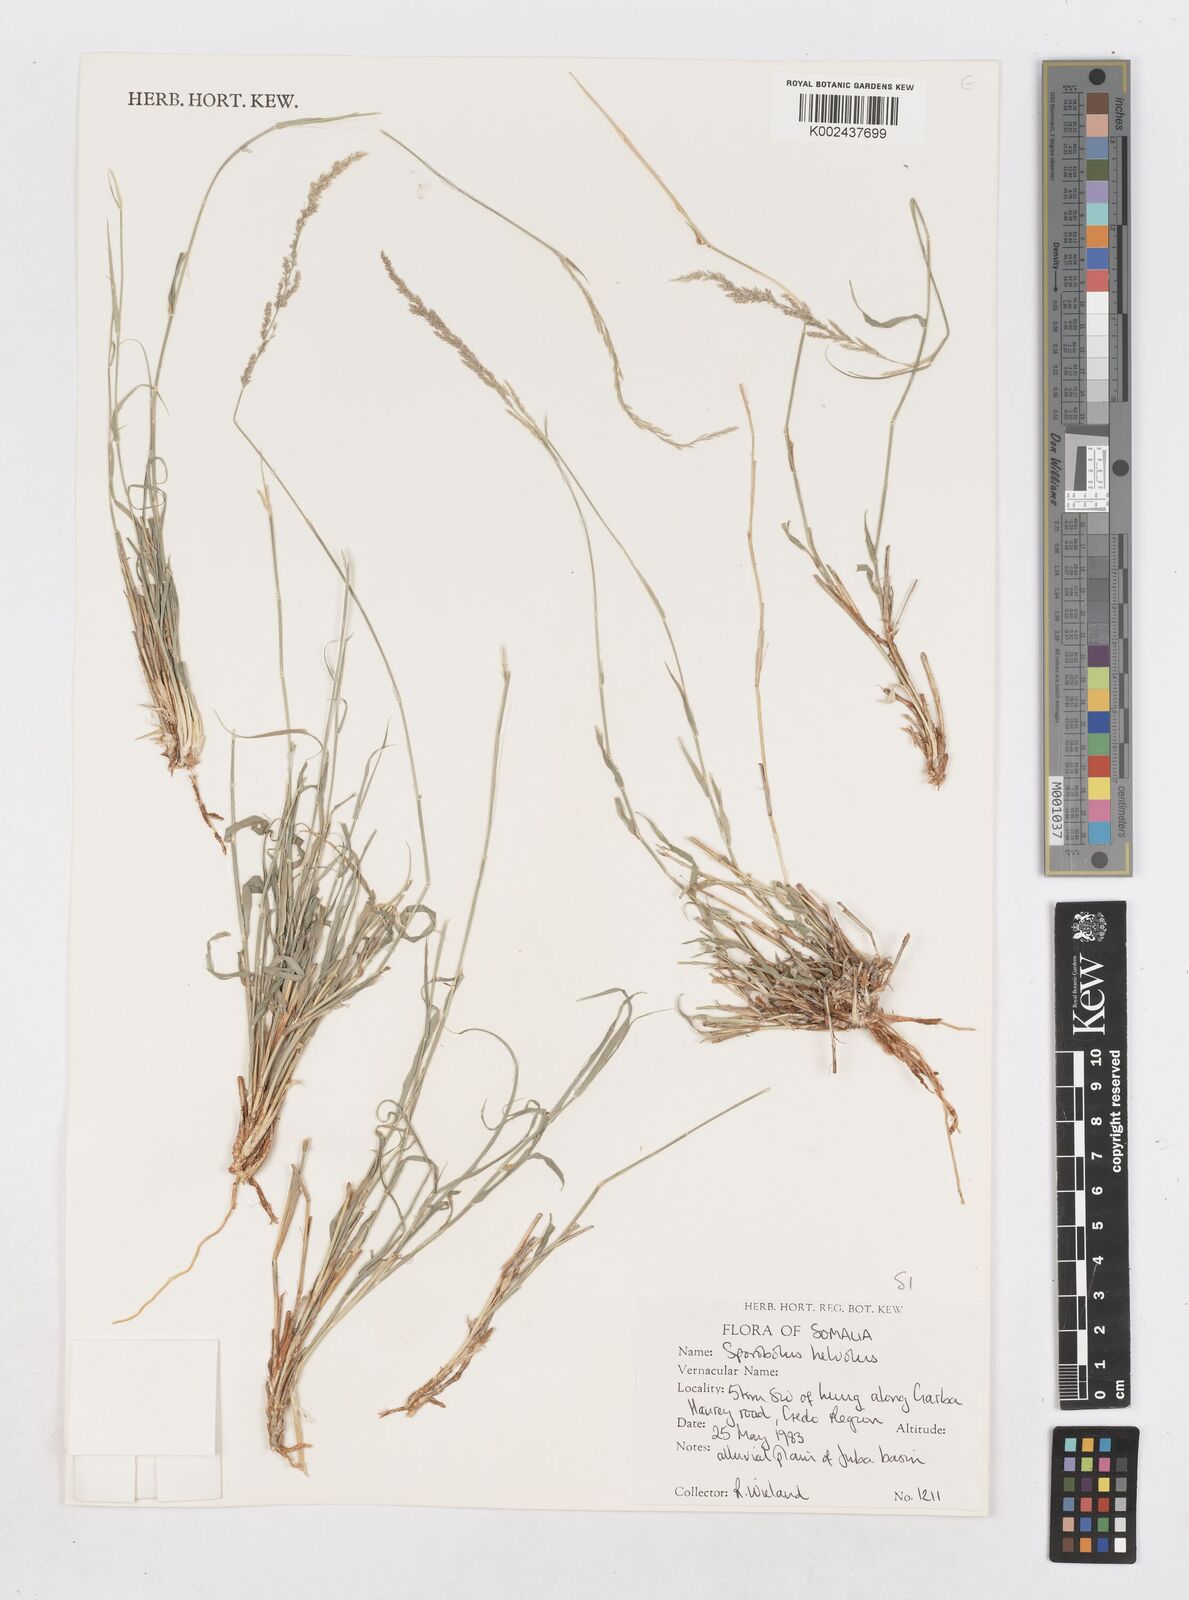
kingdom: Plantae
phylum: Tracheophyta
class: Liliopsida
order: Poales
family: Poaceae
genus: Sporobolus
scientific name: Sporobolus helvolus
